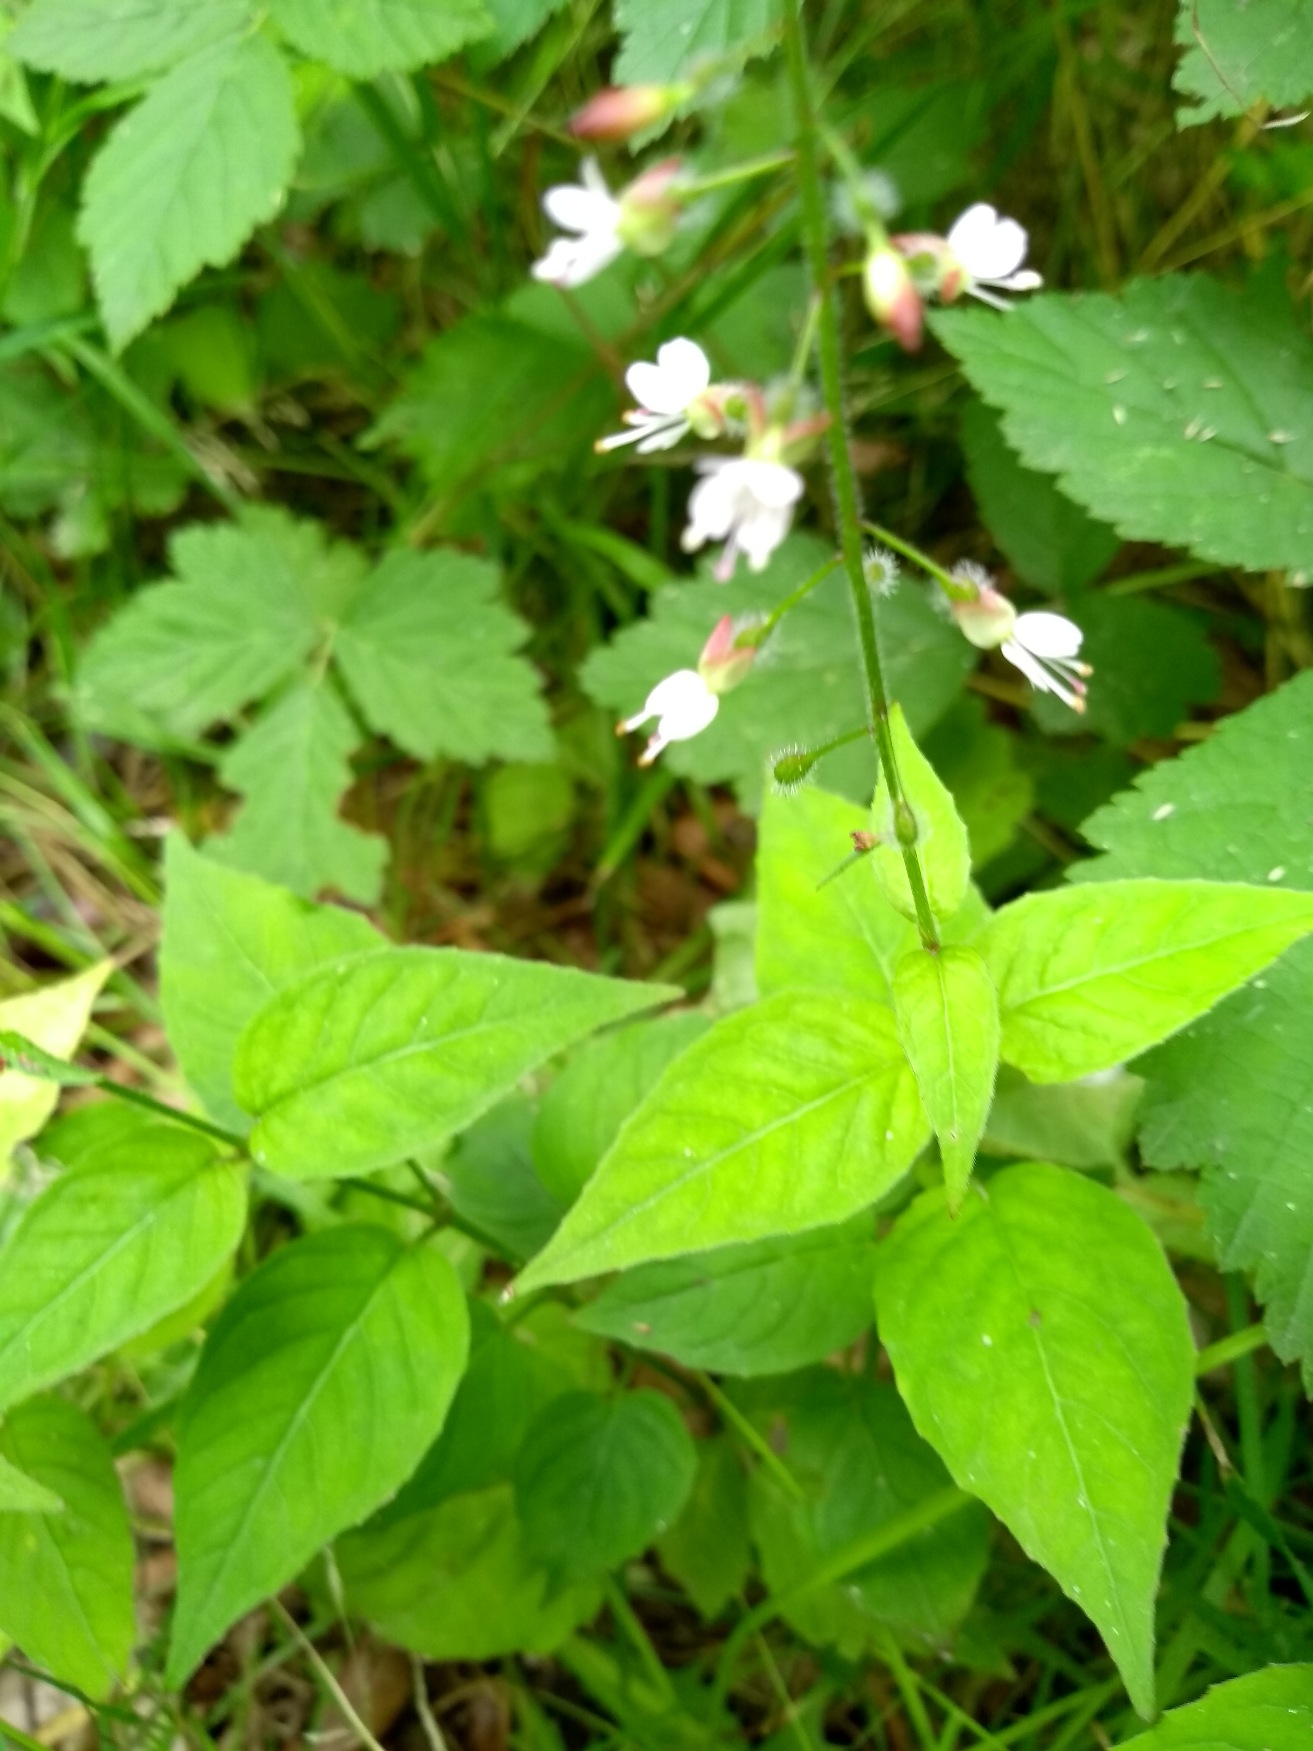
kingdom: Plantae
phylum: Tracheophyta
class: Magnoliopsida
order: Myrtales
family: Onagraceae
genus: Circaea
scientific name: Circaea lutetiana
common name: Dunet steffensurt
